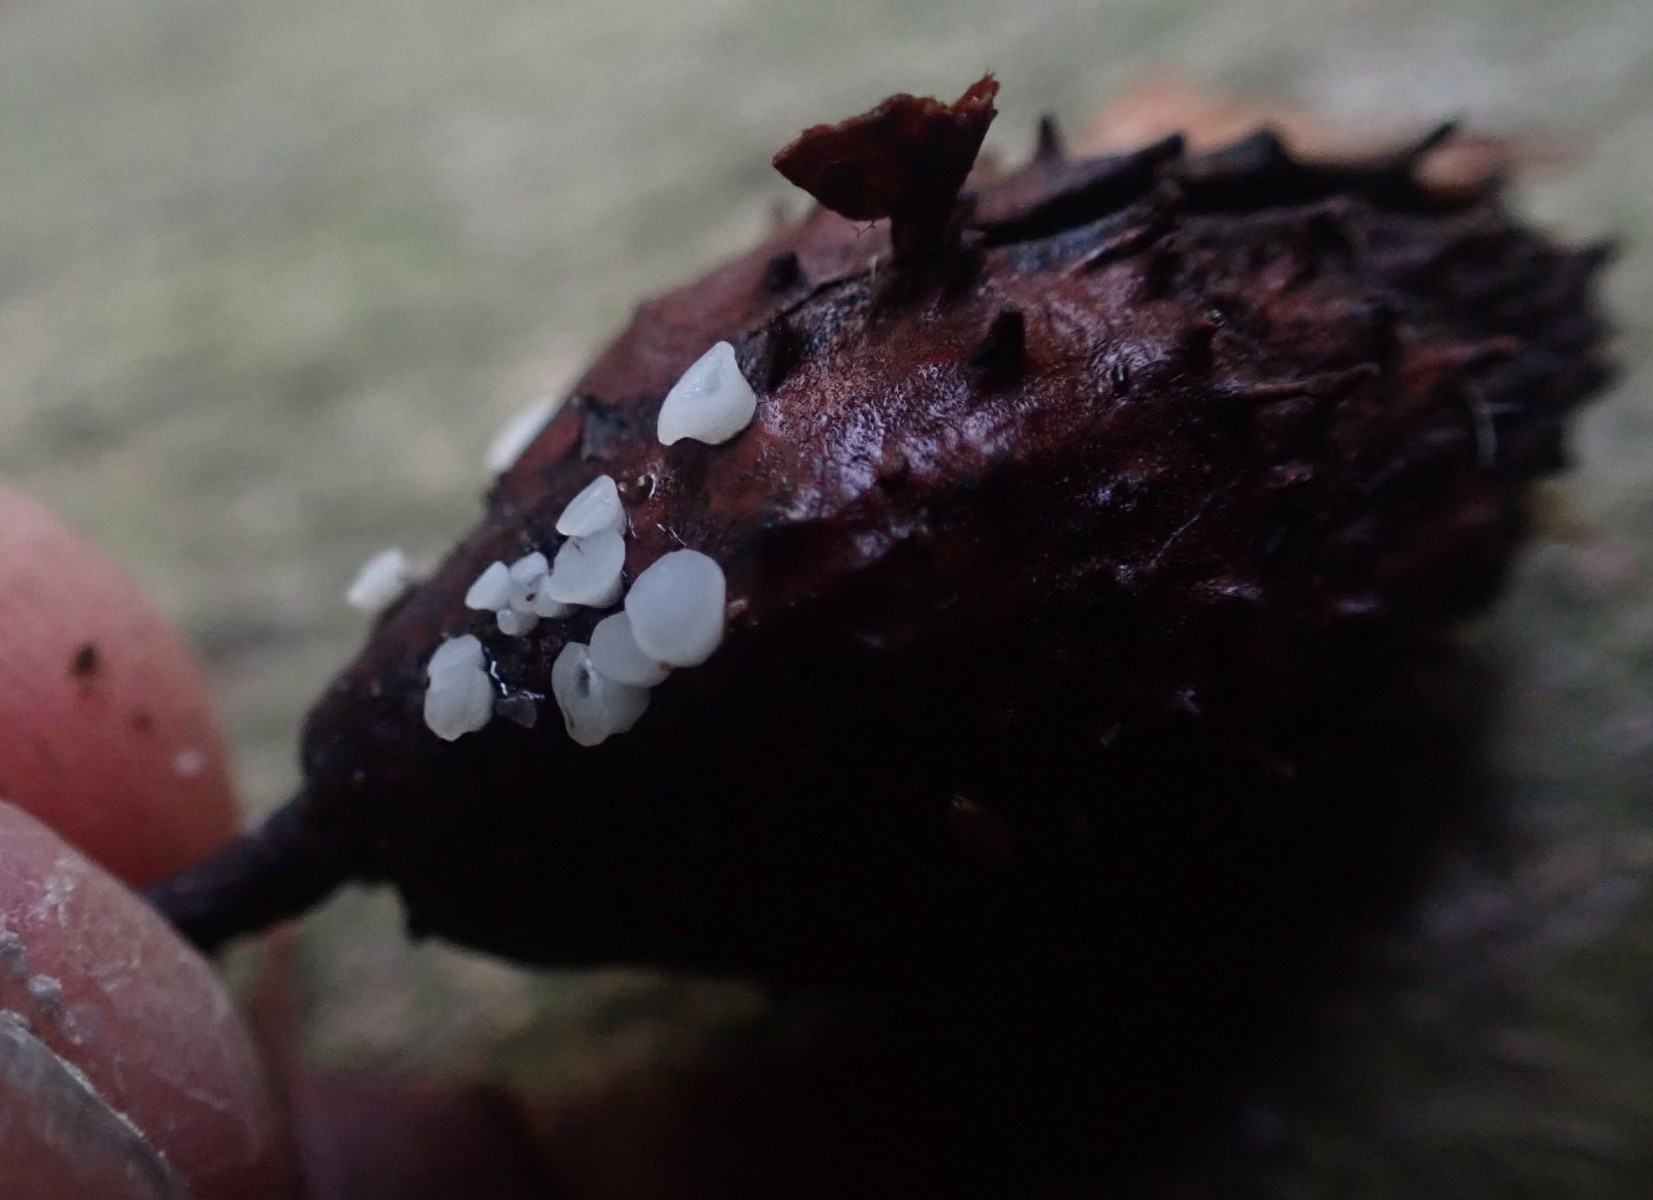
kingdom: Fungi
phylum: Ascomycota
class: Leotiomycetes
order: Helotiales
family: Helotiaceae
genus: Hymenoscyphus
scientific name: Hymenoscyphus fagineus
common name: vellugtende stilkskive
